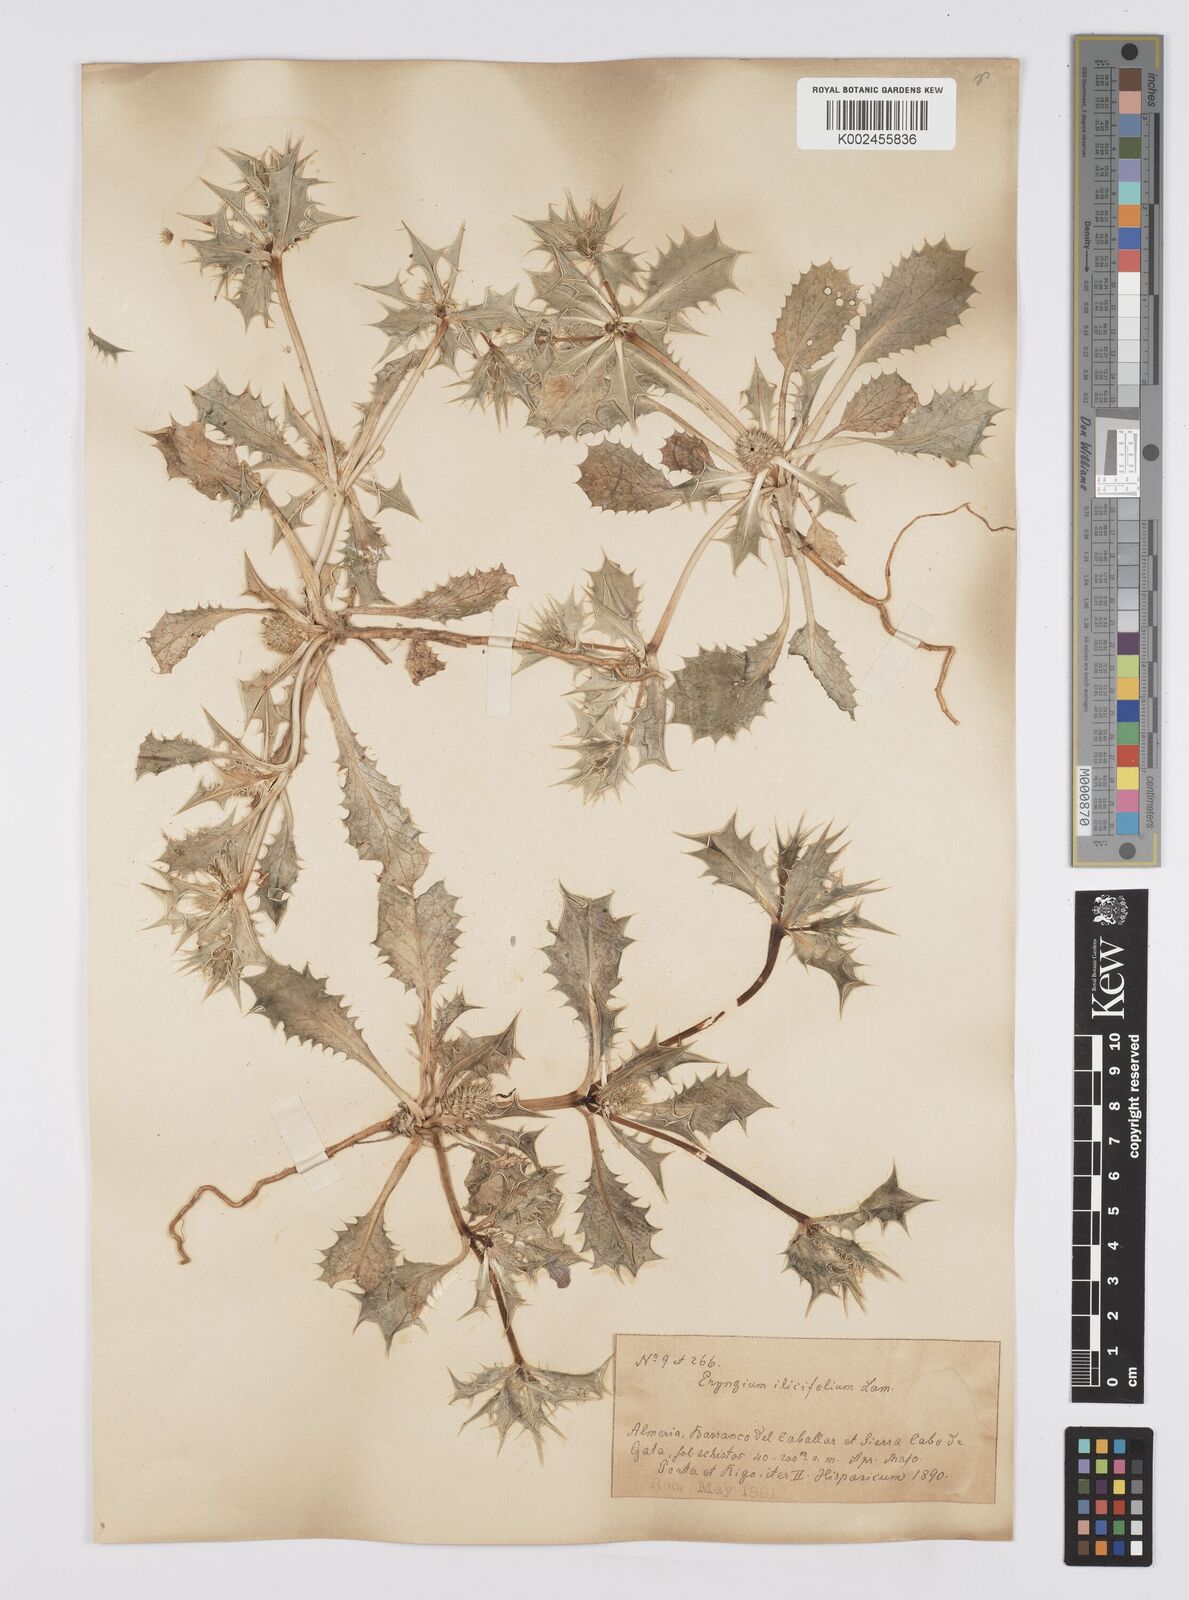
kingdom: Plantae
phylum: Tracheophyta
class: Magnoliopsida
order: Apiales
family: Apiaceae
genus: Eryngium
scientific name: Eryngium
